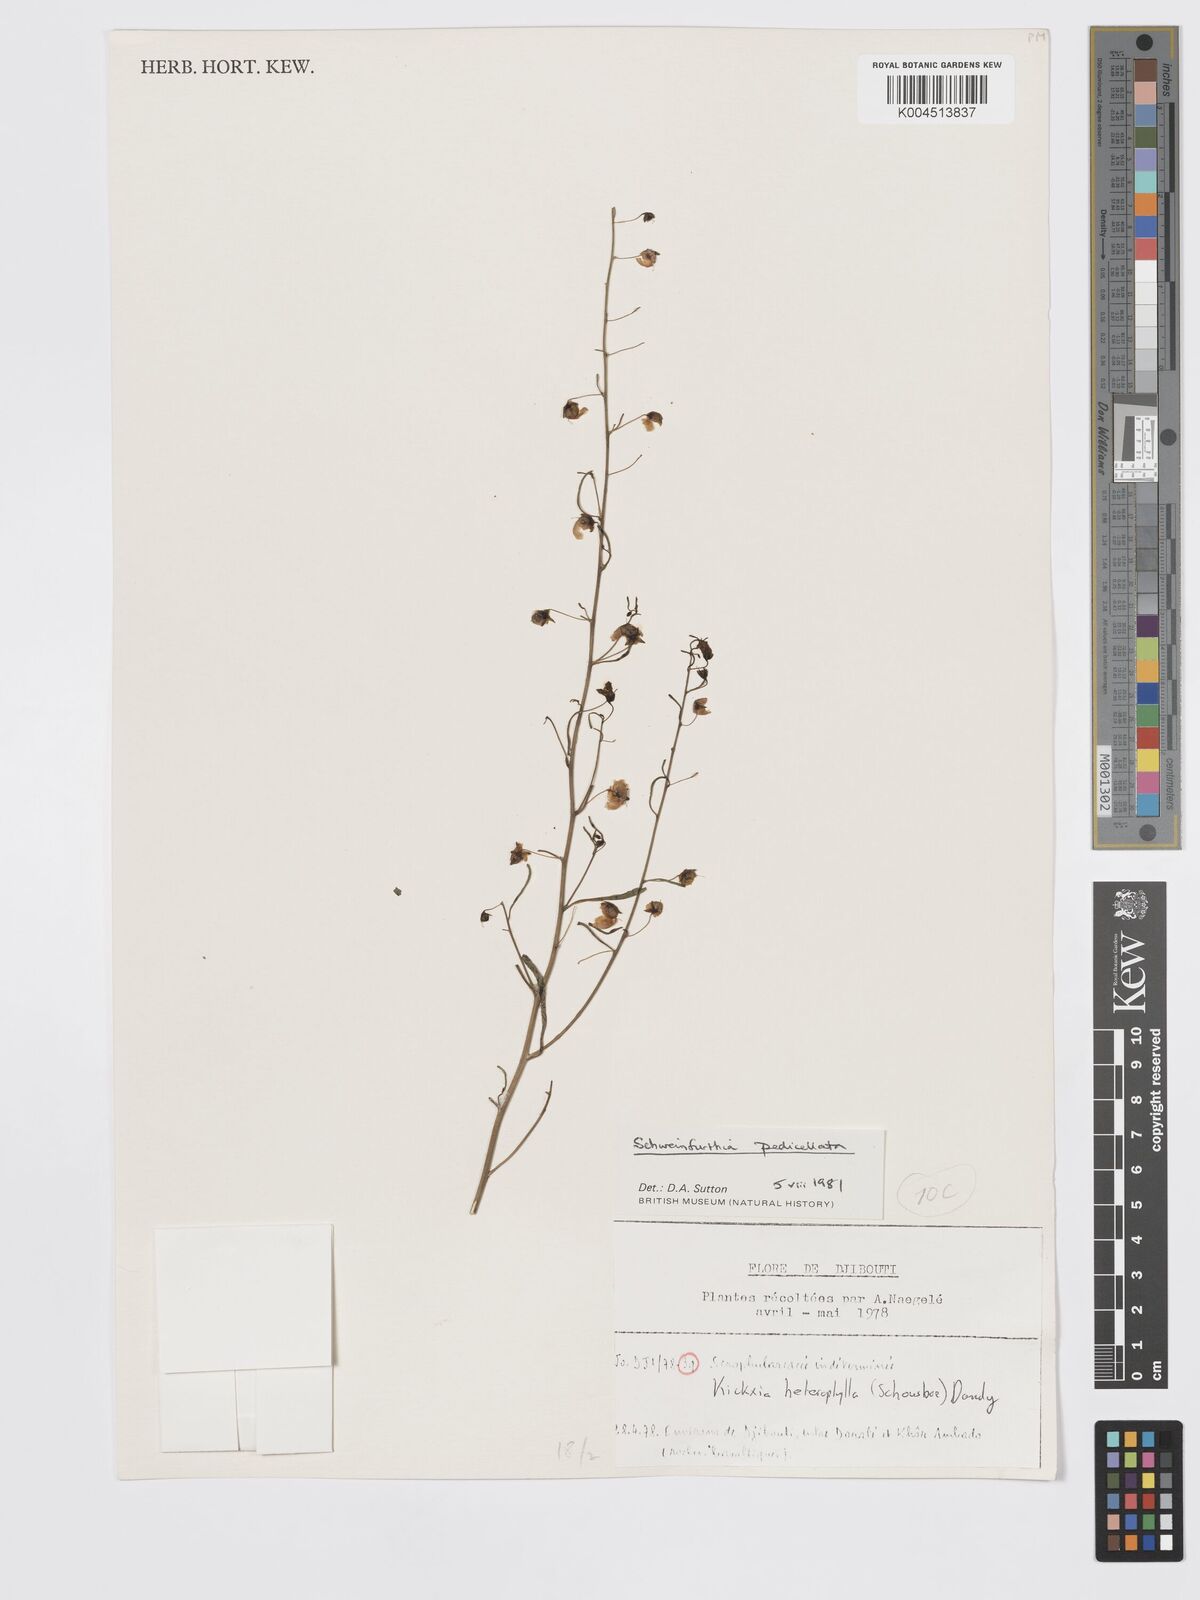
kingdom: Plantae
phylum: Tracheophyta
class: Magnoliopsida
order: Lamiales
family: Plantaginaceae
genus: Schweinfurthia
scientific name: Schweinfurthia pedicellata
